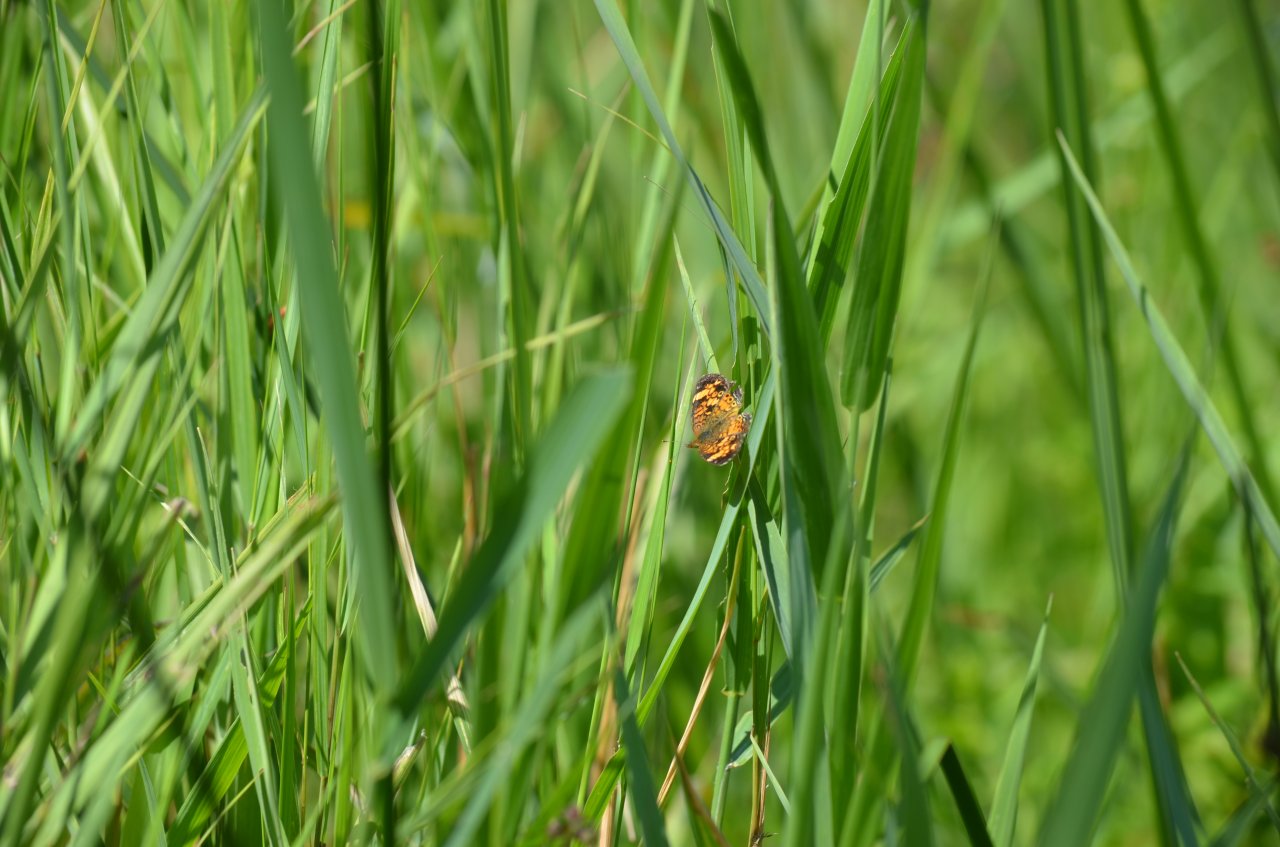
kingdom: Animalia
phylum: Arthropoda
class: Insecta
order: Lepidoptera
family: Nymphalidae
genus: Phyciodes
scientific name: Phyciodes tharos
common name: Northern Crescent
